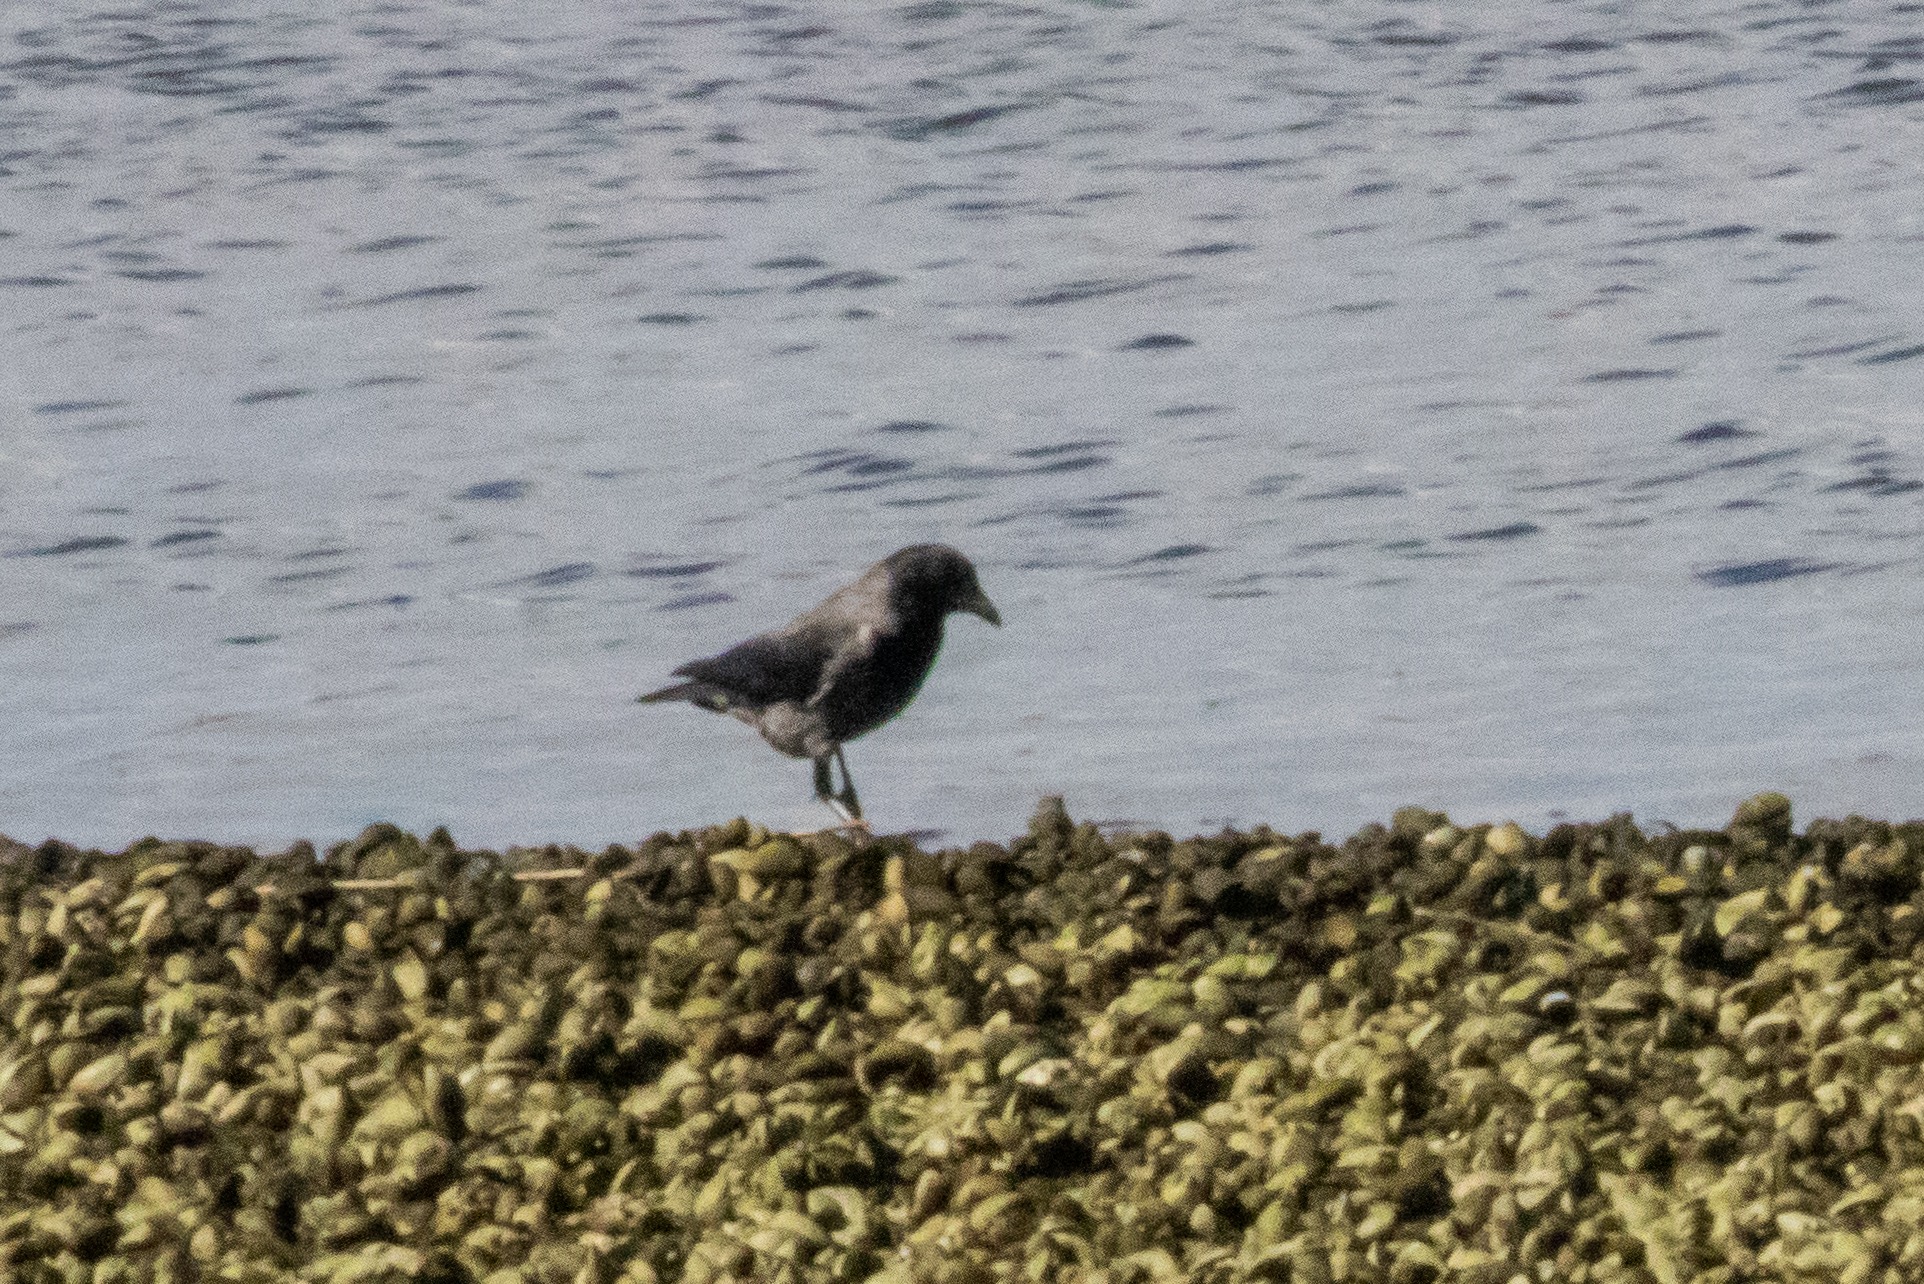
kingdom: Animalia
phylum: Chordata
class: Aves
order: Passeriformes
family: Corvidae
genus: Corvus
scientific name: Corvus cornix
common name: Gråkrage
